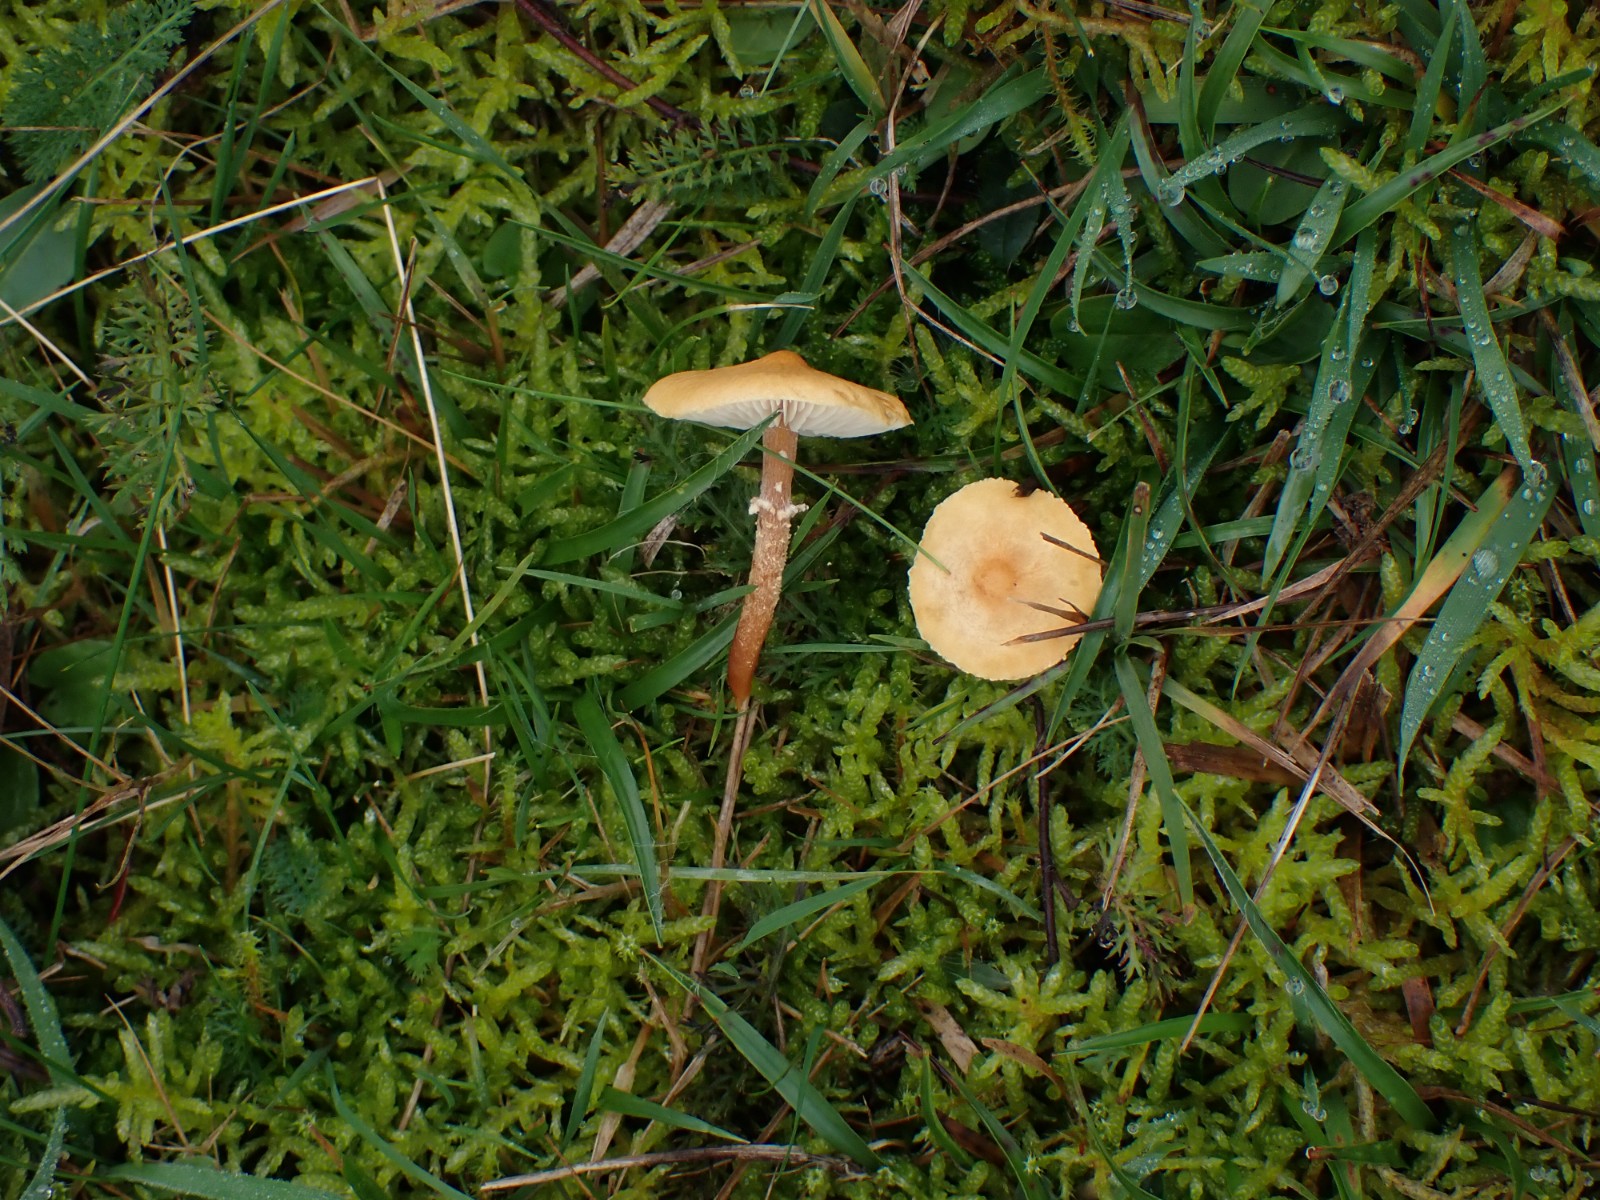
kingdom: Fungi
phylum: Basidiomycota
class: Agaricomycetes
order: Agaricales
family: Tricholomataceae
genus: Cystoderma
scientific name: Cystoderma amianthinum
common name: okkergul grynhat
